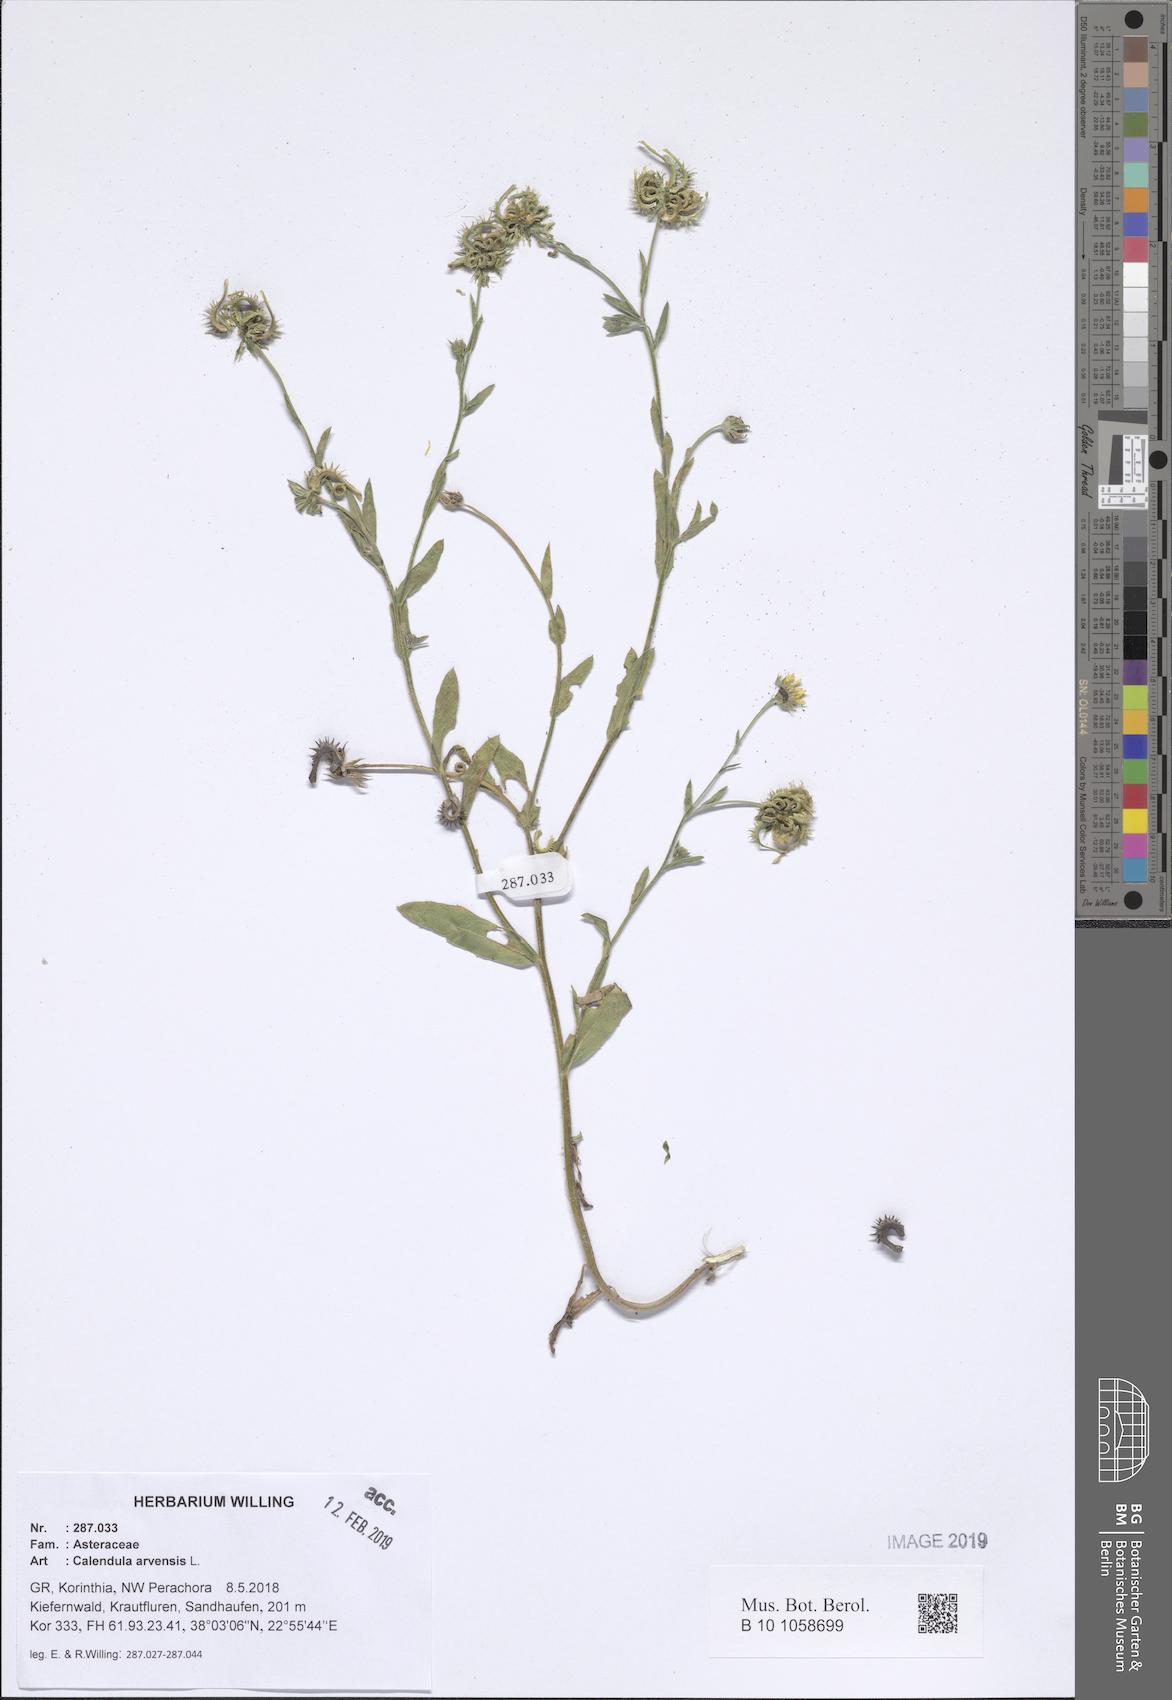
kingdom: Plantae
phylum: Tracheophyta
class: Magnoliopsida
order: Asterales
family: Asteraceae
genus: Calendula
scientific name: Calendula arvensis
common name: Field marigold
